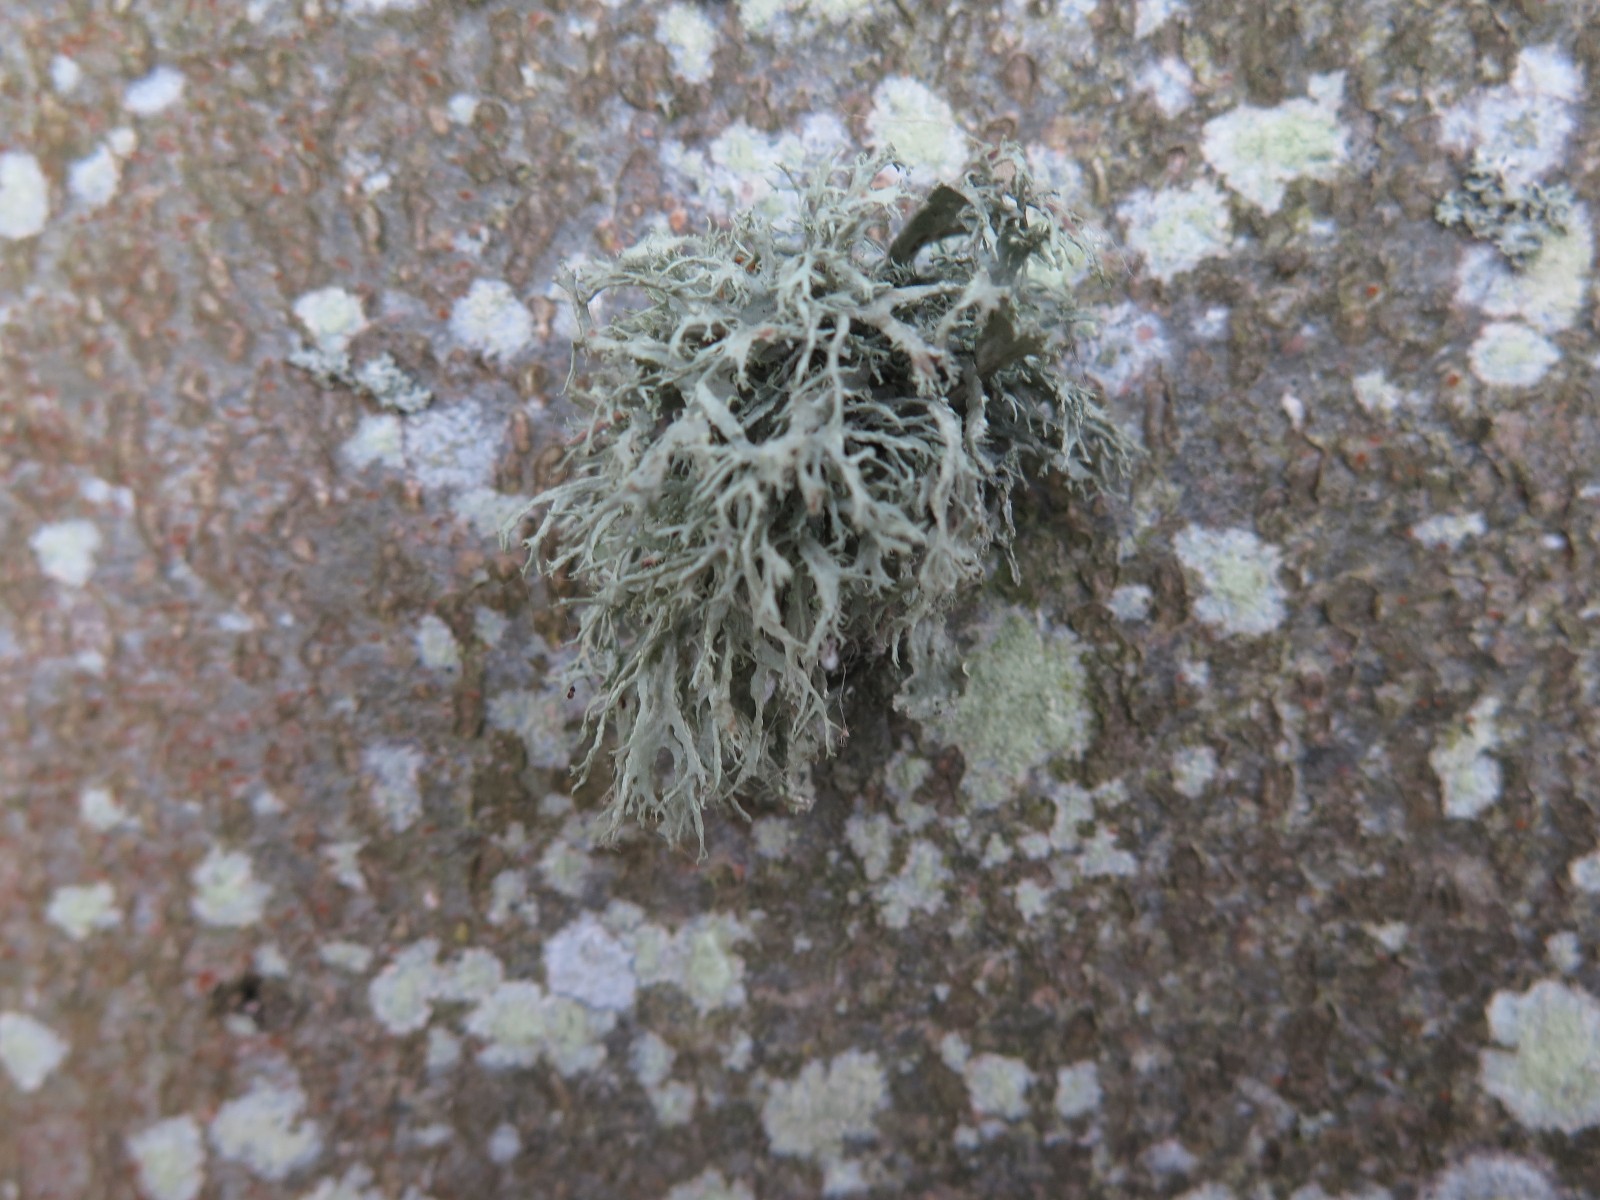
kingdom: Fungi
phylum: Ascomycota
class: Lecanoromycetes
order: Lecanorales
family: Parmeliaceae
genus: Evernia
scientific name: Evernia prunastri
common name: almindelig slåenlav
